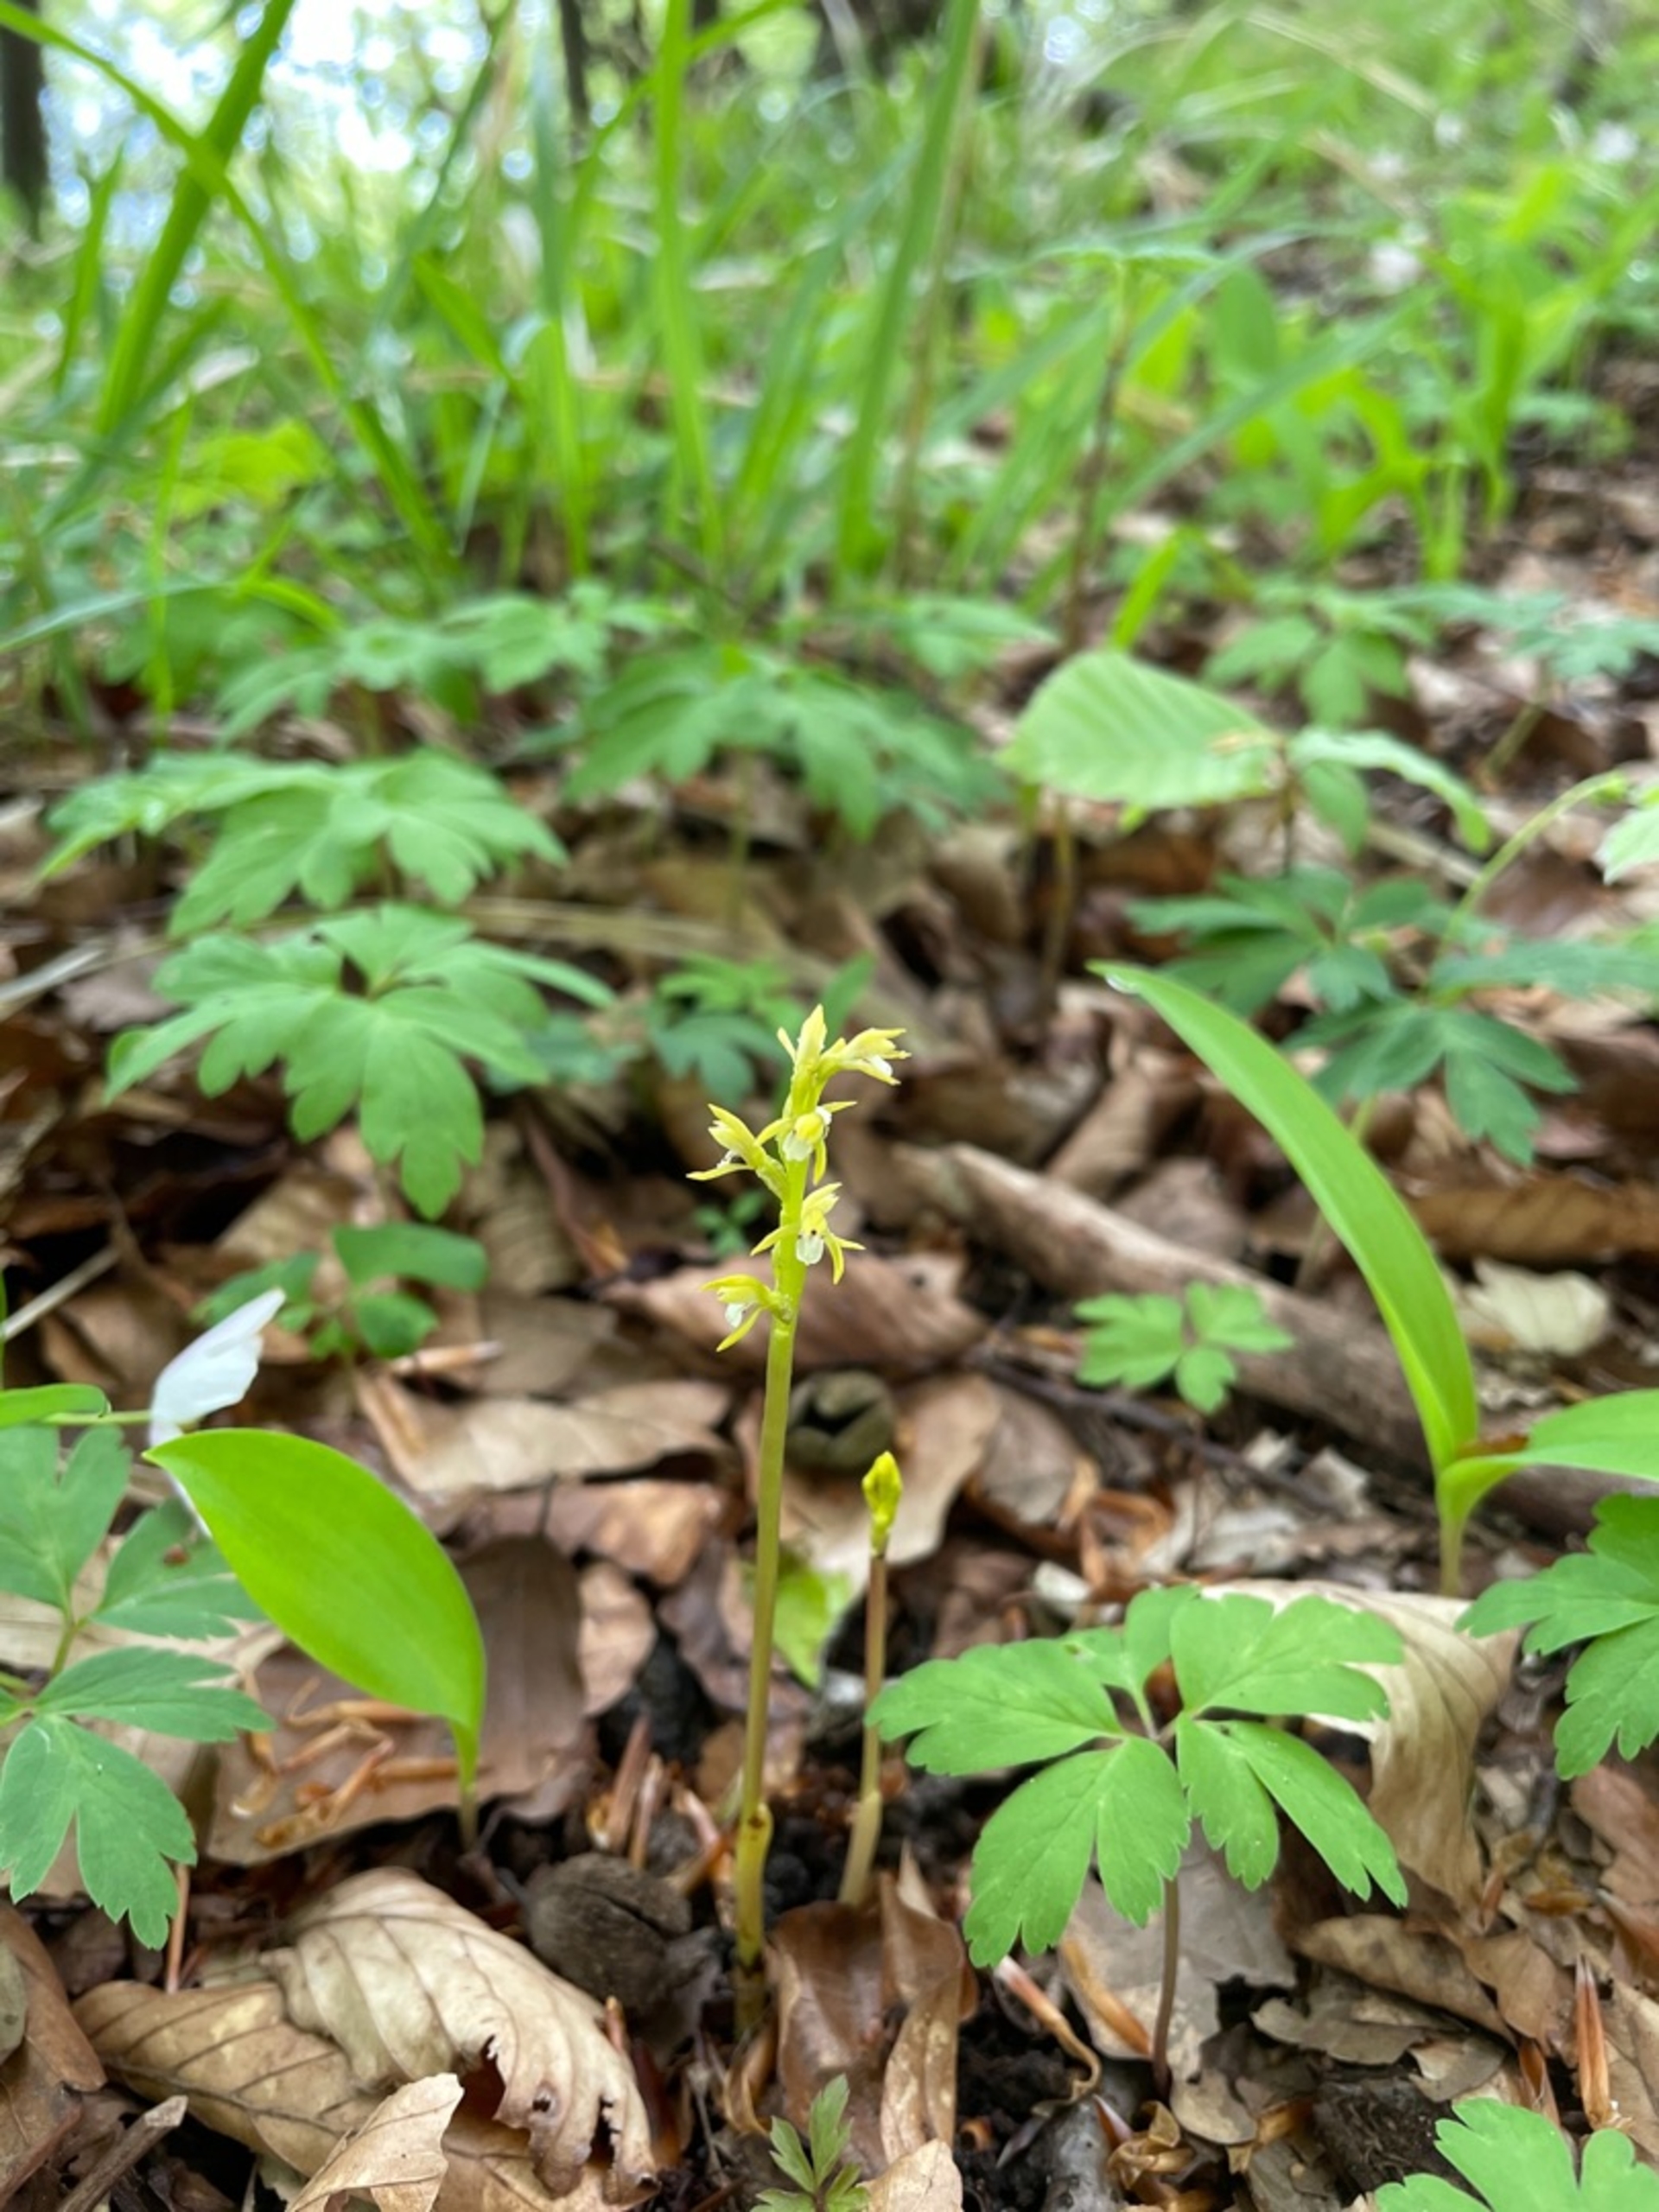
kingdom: Plantae
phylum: Tracheophyta
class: Liliopsida
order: Asparagales
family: Orchidaceae
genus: Corallorhiza
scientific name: Corallorhiza trifida
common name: Koralrod
